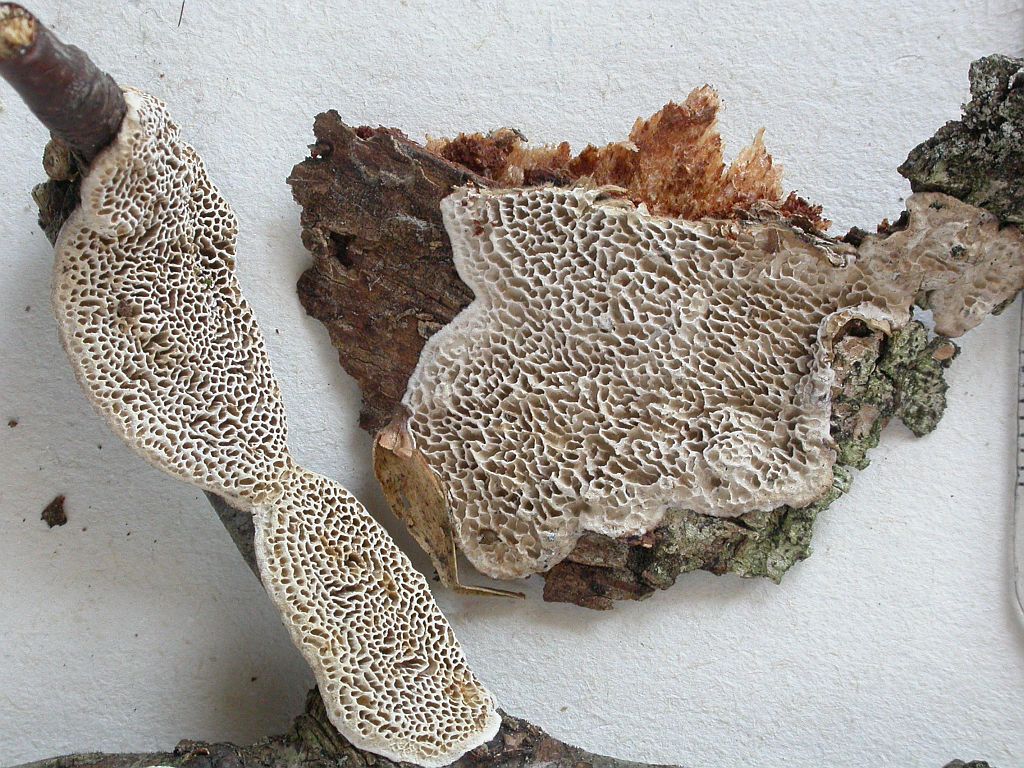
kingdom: Fungi
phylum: Basidiomycota
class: Agaricomycetes
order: Polyporales
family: Polyporaceae
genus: Podofomes
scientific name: Podofomes mollis
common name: blød begporesvamp
